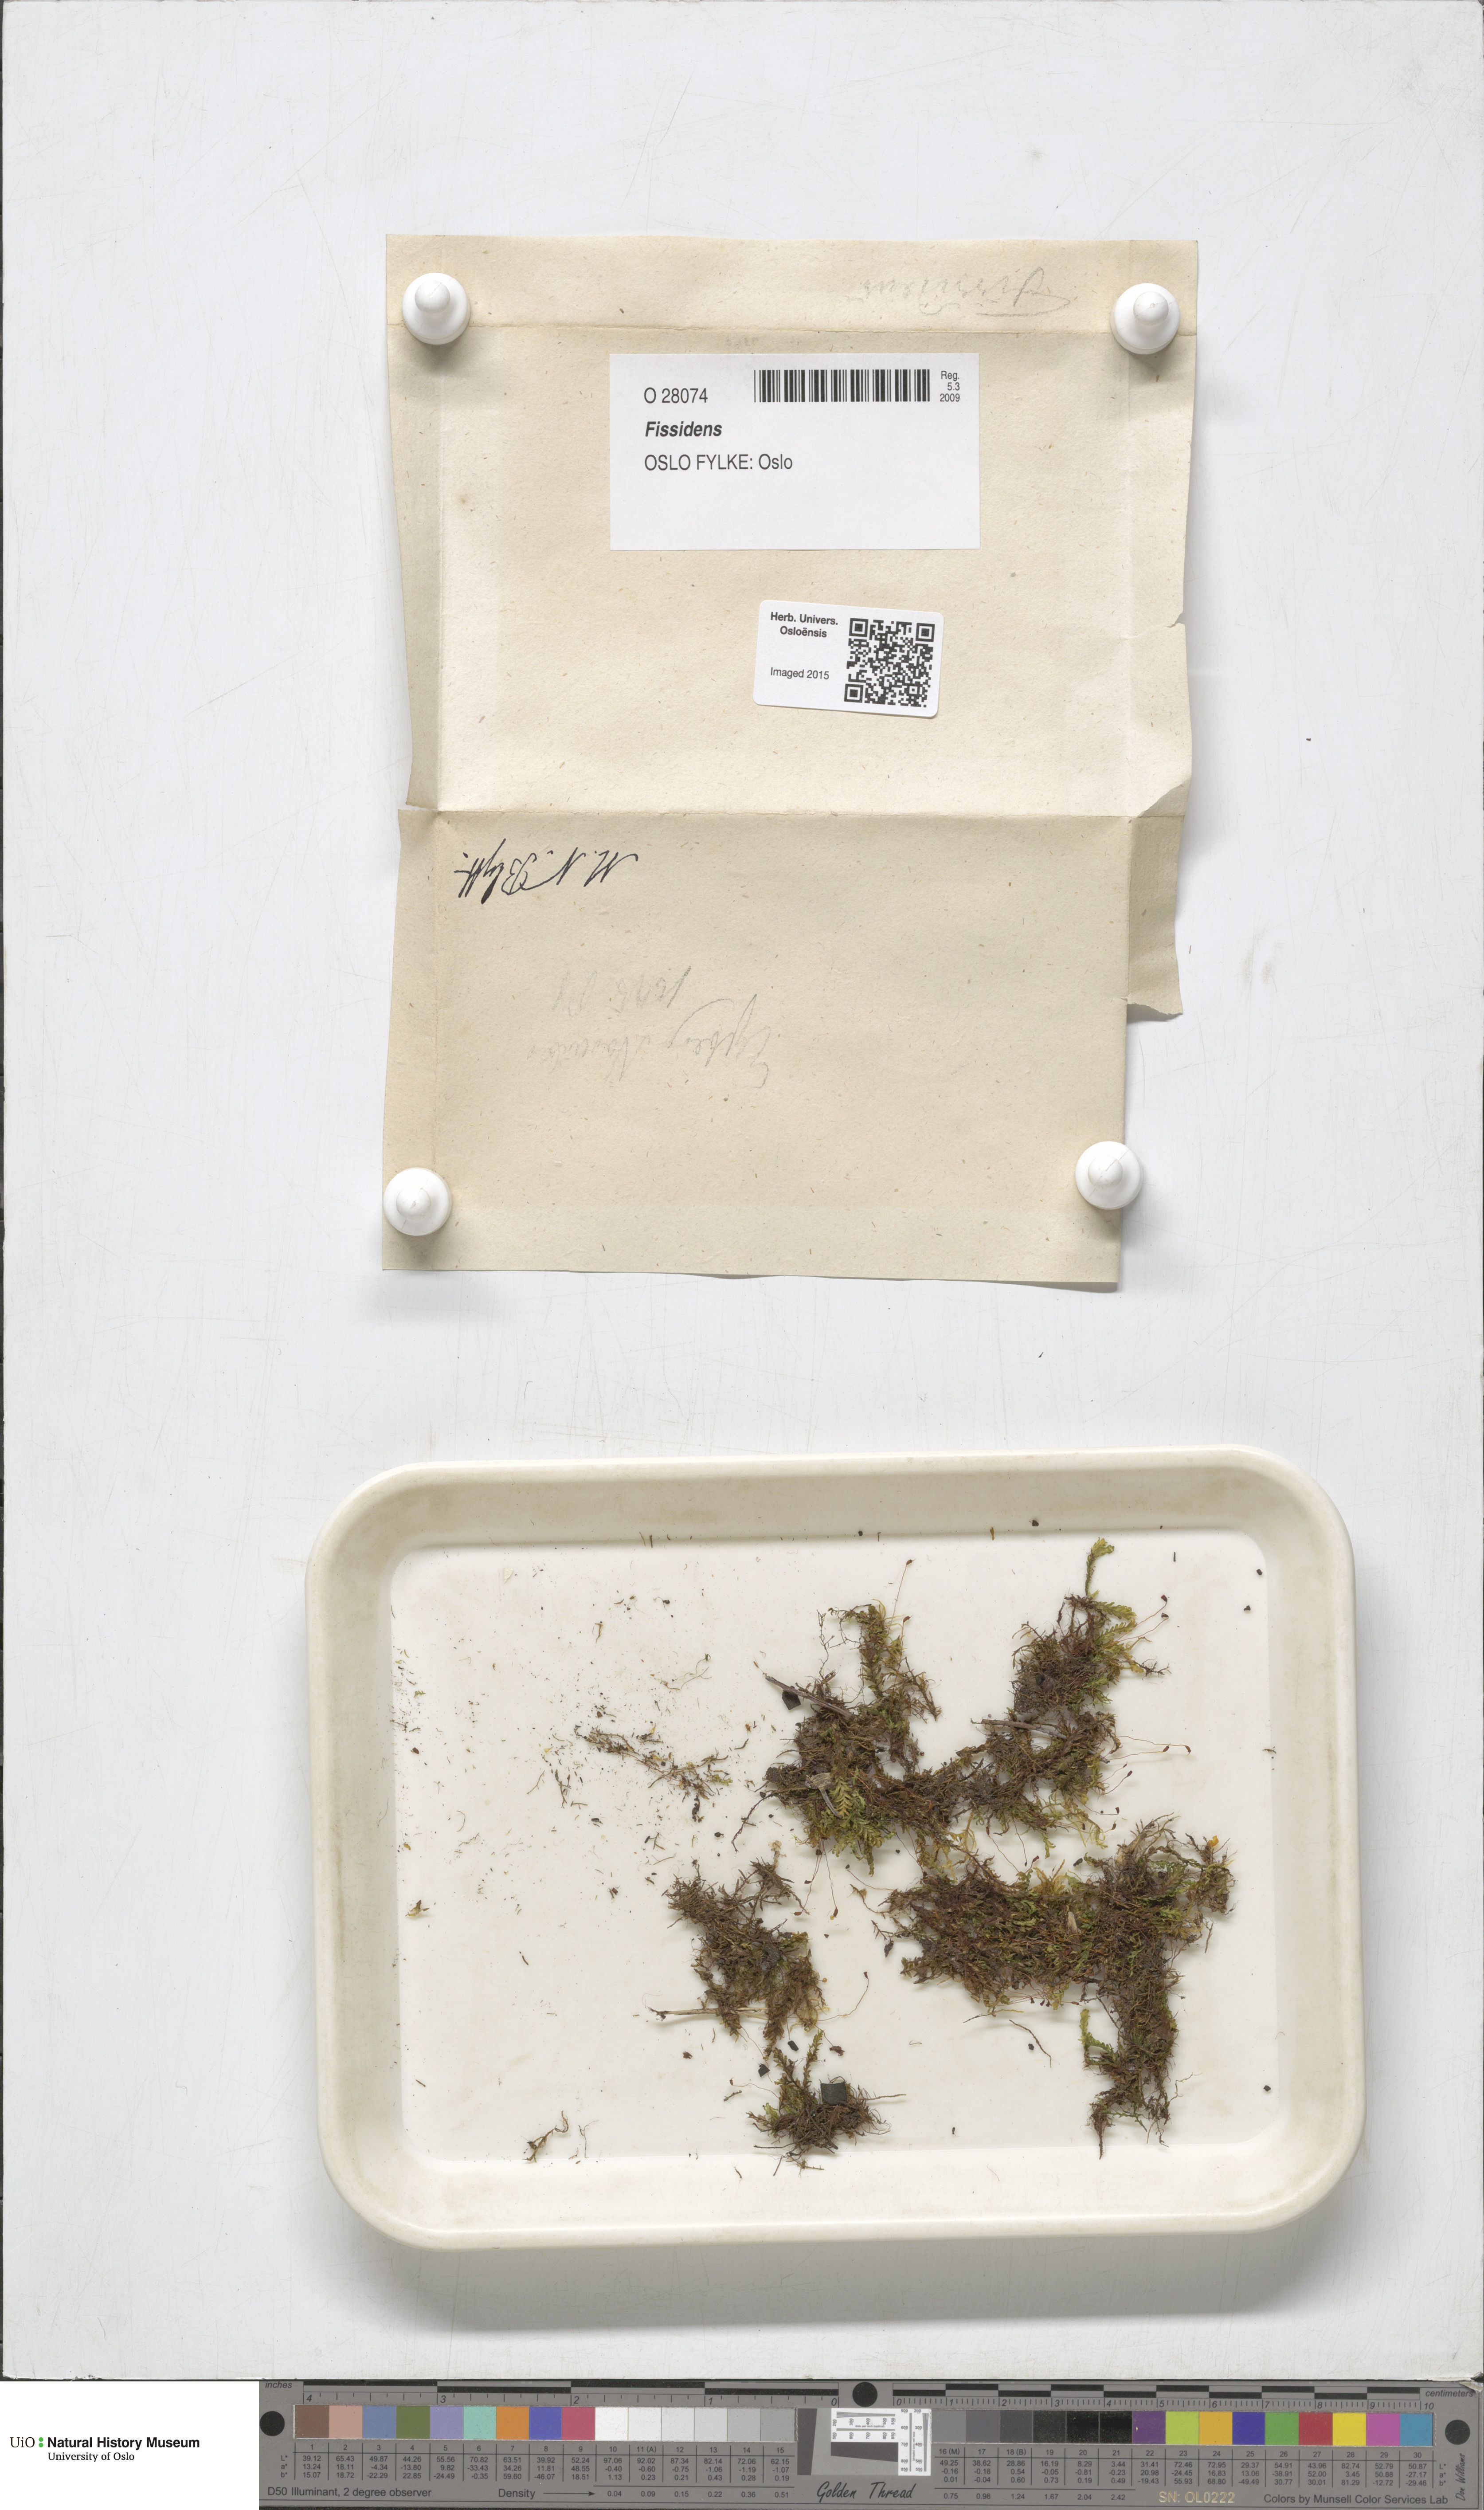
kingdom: Plantae
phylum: Bryophyta
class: Bryopsida
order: Dicranales
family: Fissidentaceae
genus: Fissidens
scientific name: Fissidens
